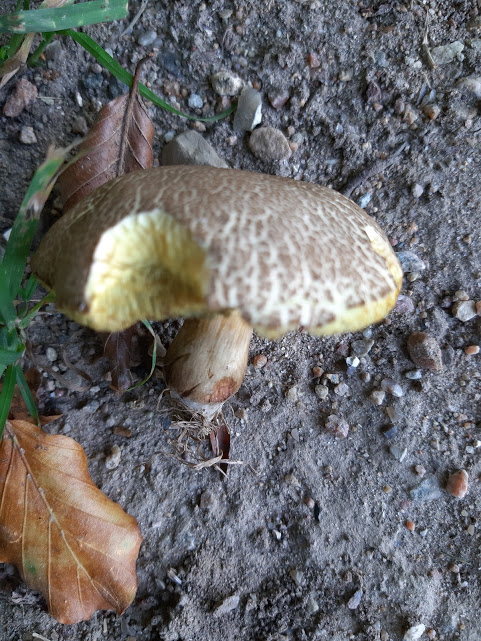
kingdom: Fungi
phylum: Basidiomycota
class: Agaricomycetes
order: Boletales
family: Boletaceae
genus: Xerocomellus
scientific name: Xerocomellus porosporus
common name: hvidsprukken rørhat
